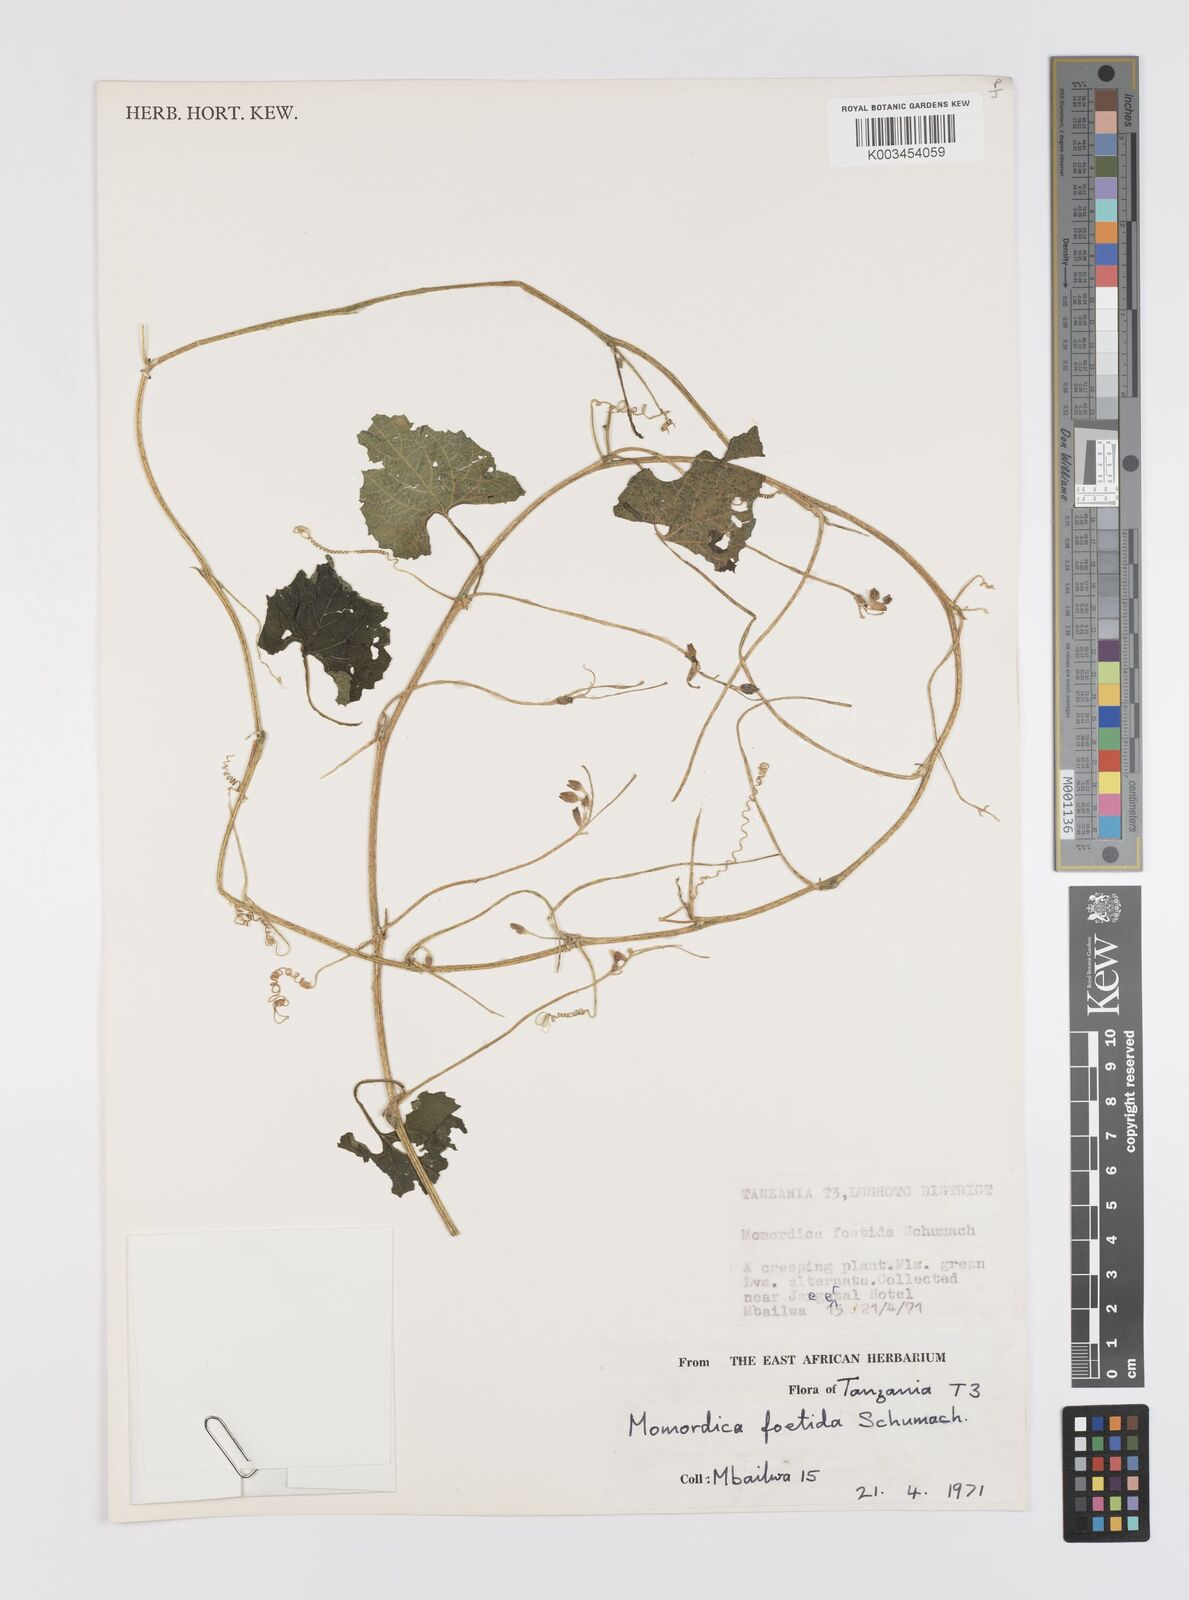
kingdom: Plantae
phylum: Tracheophyta
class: Magnoliopsida
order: Cucurbitales
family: Cucurbitaceae
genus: Momordica
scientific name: Momordica foetida
